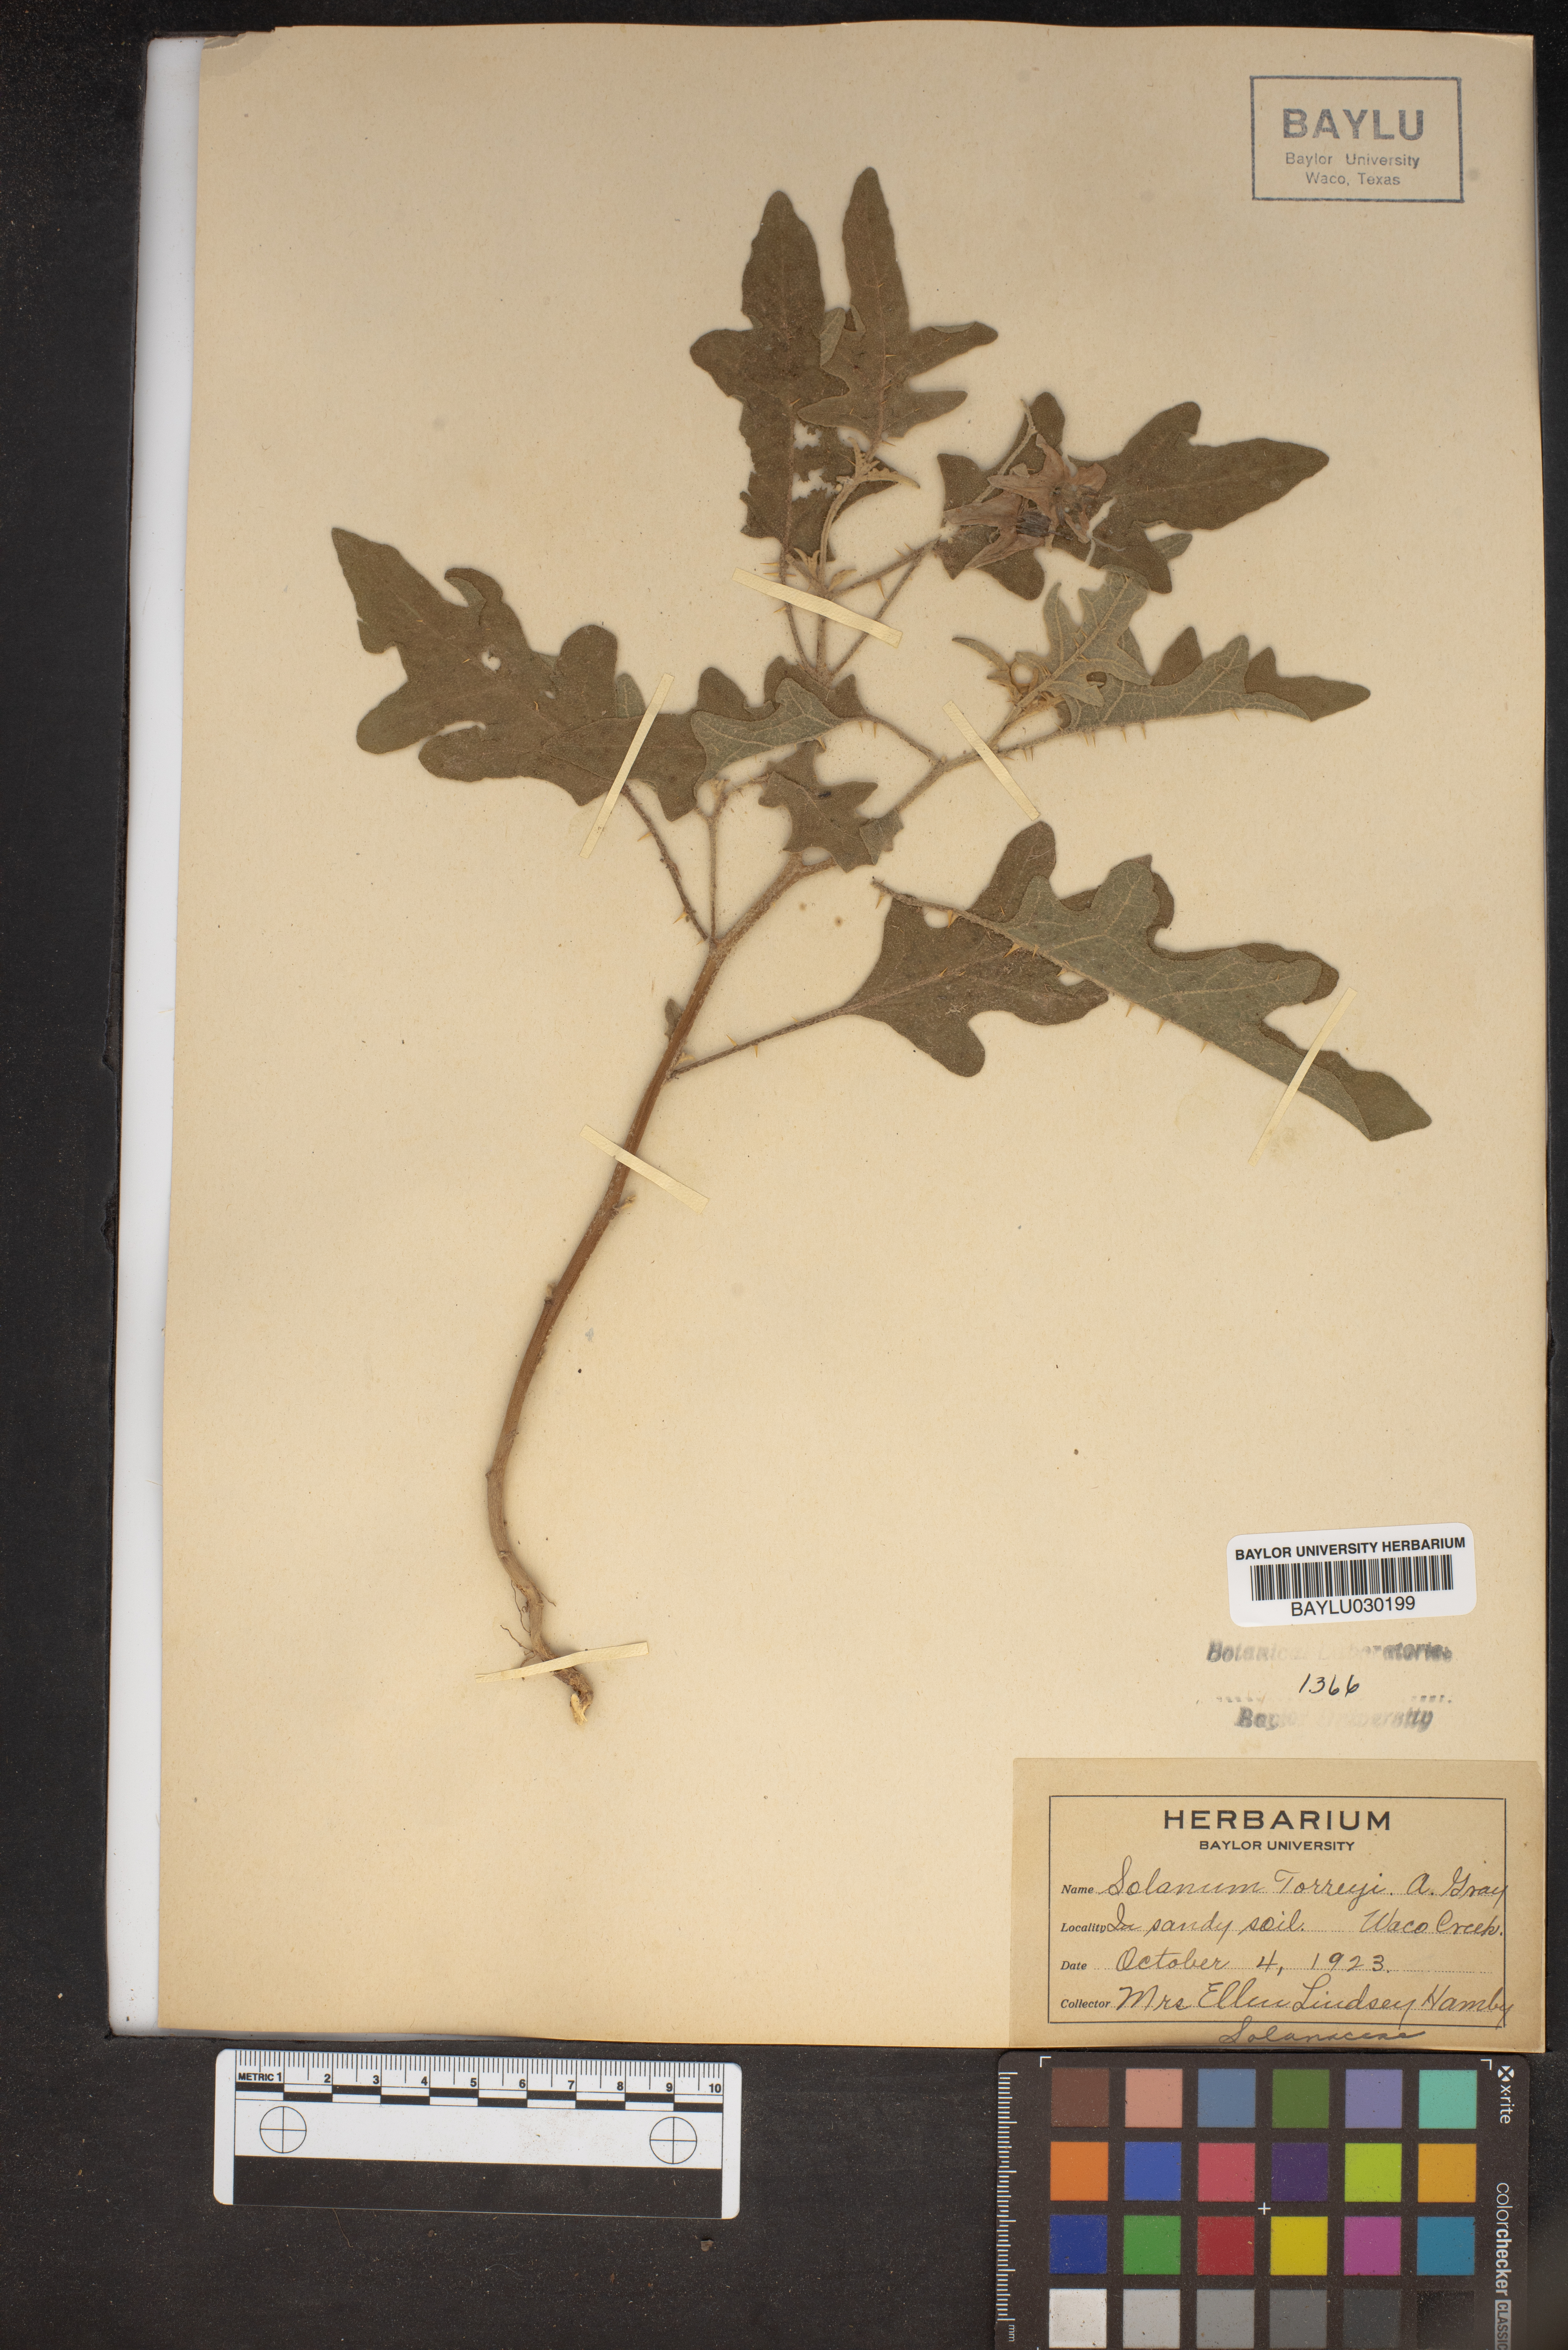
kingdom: Plantae
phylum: Tracheophyta
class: Magnoliopsida
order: Solanales
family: Solanaceae
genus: Solanum
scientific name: Solanum dimidiatum
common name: Carolina horse-nettle
